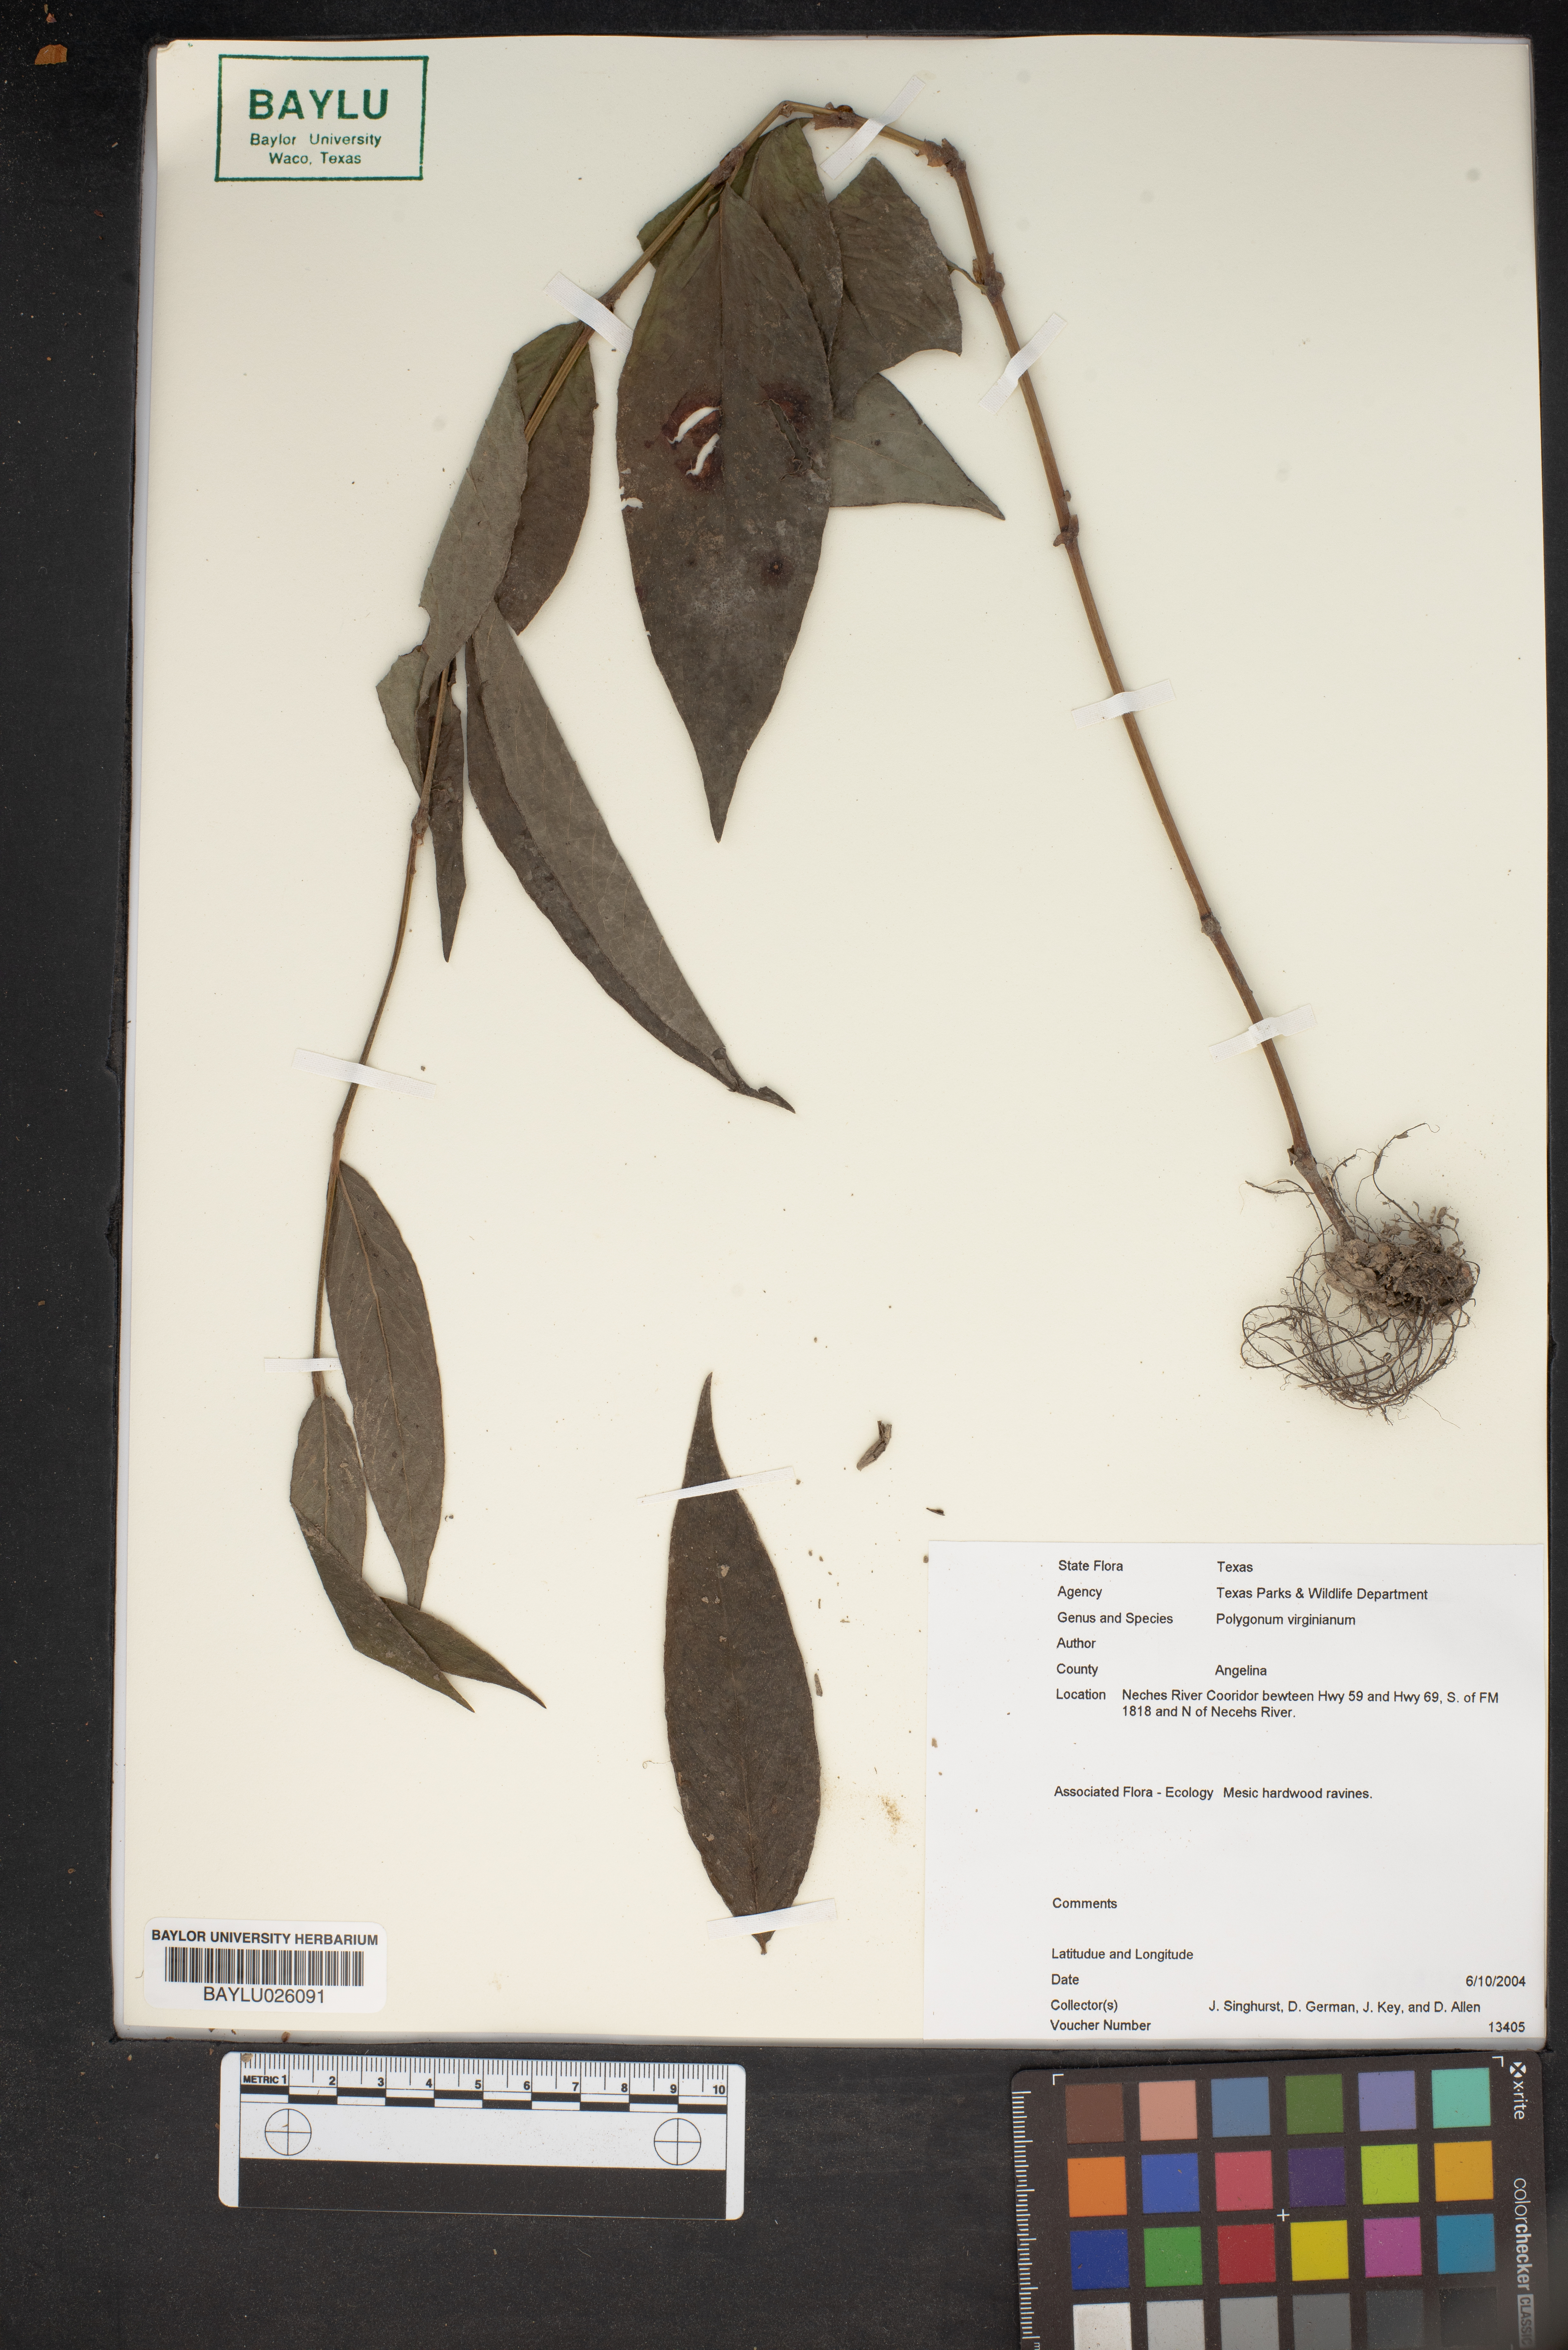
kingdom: Plantae
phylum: Tracheophyta
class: Magnoliopsida
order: Caryophyllales
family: Polygonaceae
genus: Persicaria
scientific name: Persicaria virginiana
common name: Jumpseed
